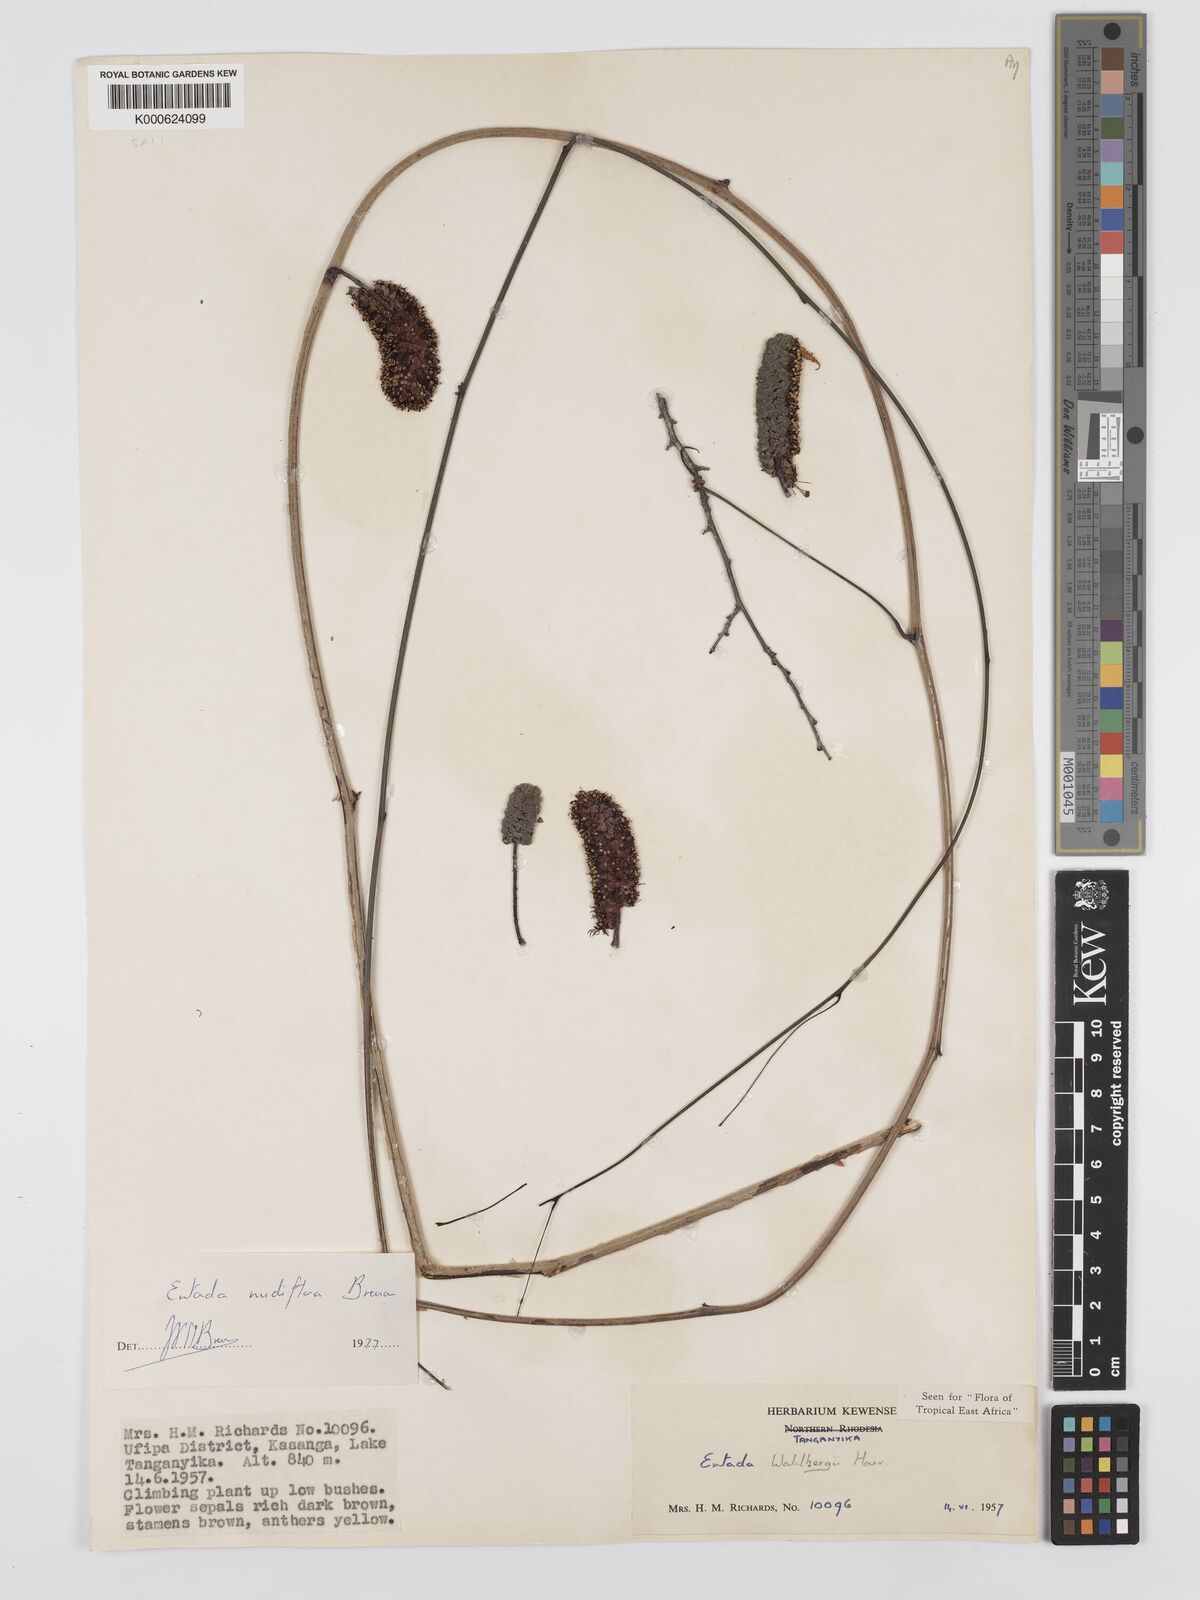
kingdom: Plantae
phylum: Tracheophyta
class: Magnoliopsida
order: Fabales
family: Fabaceae
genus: Entada
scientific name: Entada nudiflora
